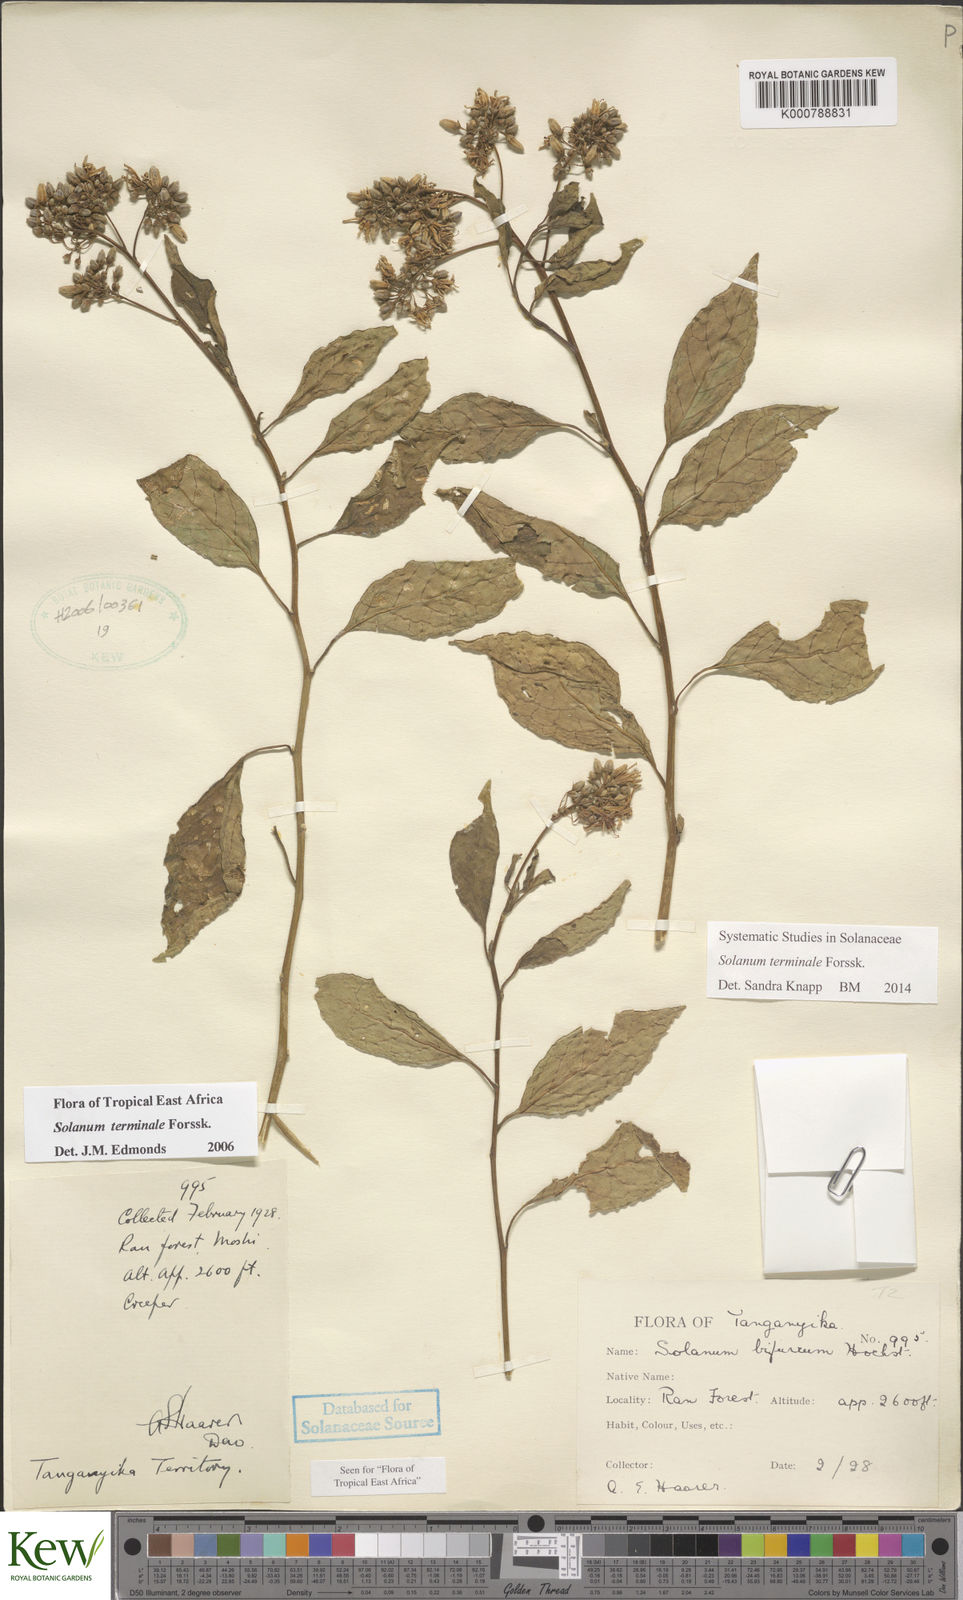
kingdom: Plantae
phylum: Tracheophyta
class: Magnoliopsida
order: Solanales
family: Solanaceae
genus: Solanum
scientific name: Solanum terminale
